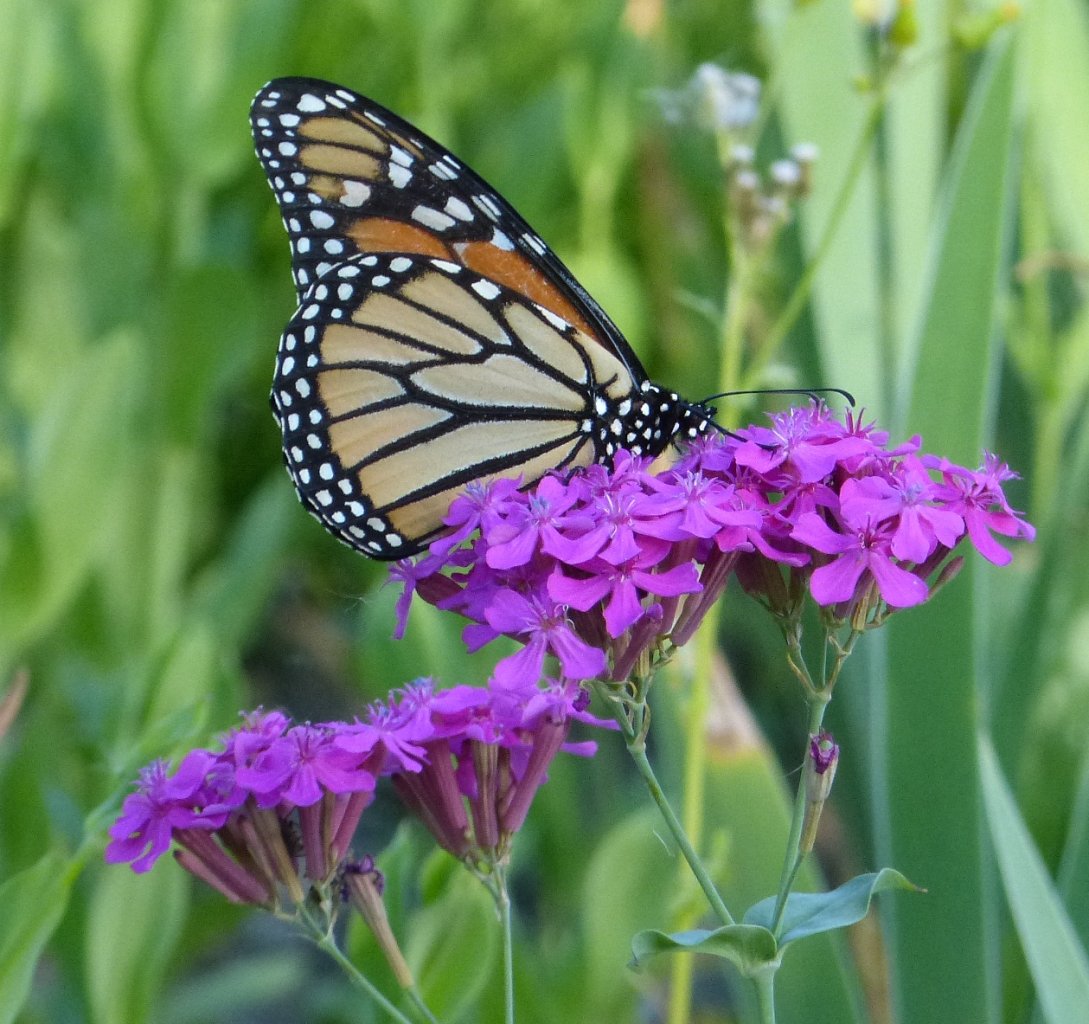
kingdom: Animalia
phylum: Arthropoda
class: Insecta
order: Lepidoptera
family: Nymphalidae
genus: Danaus
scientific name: Danaus plexippus
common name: Monarch
